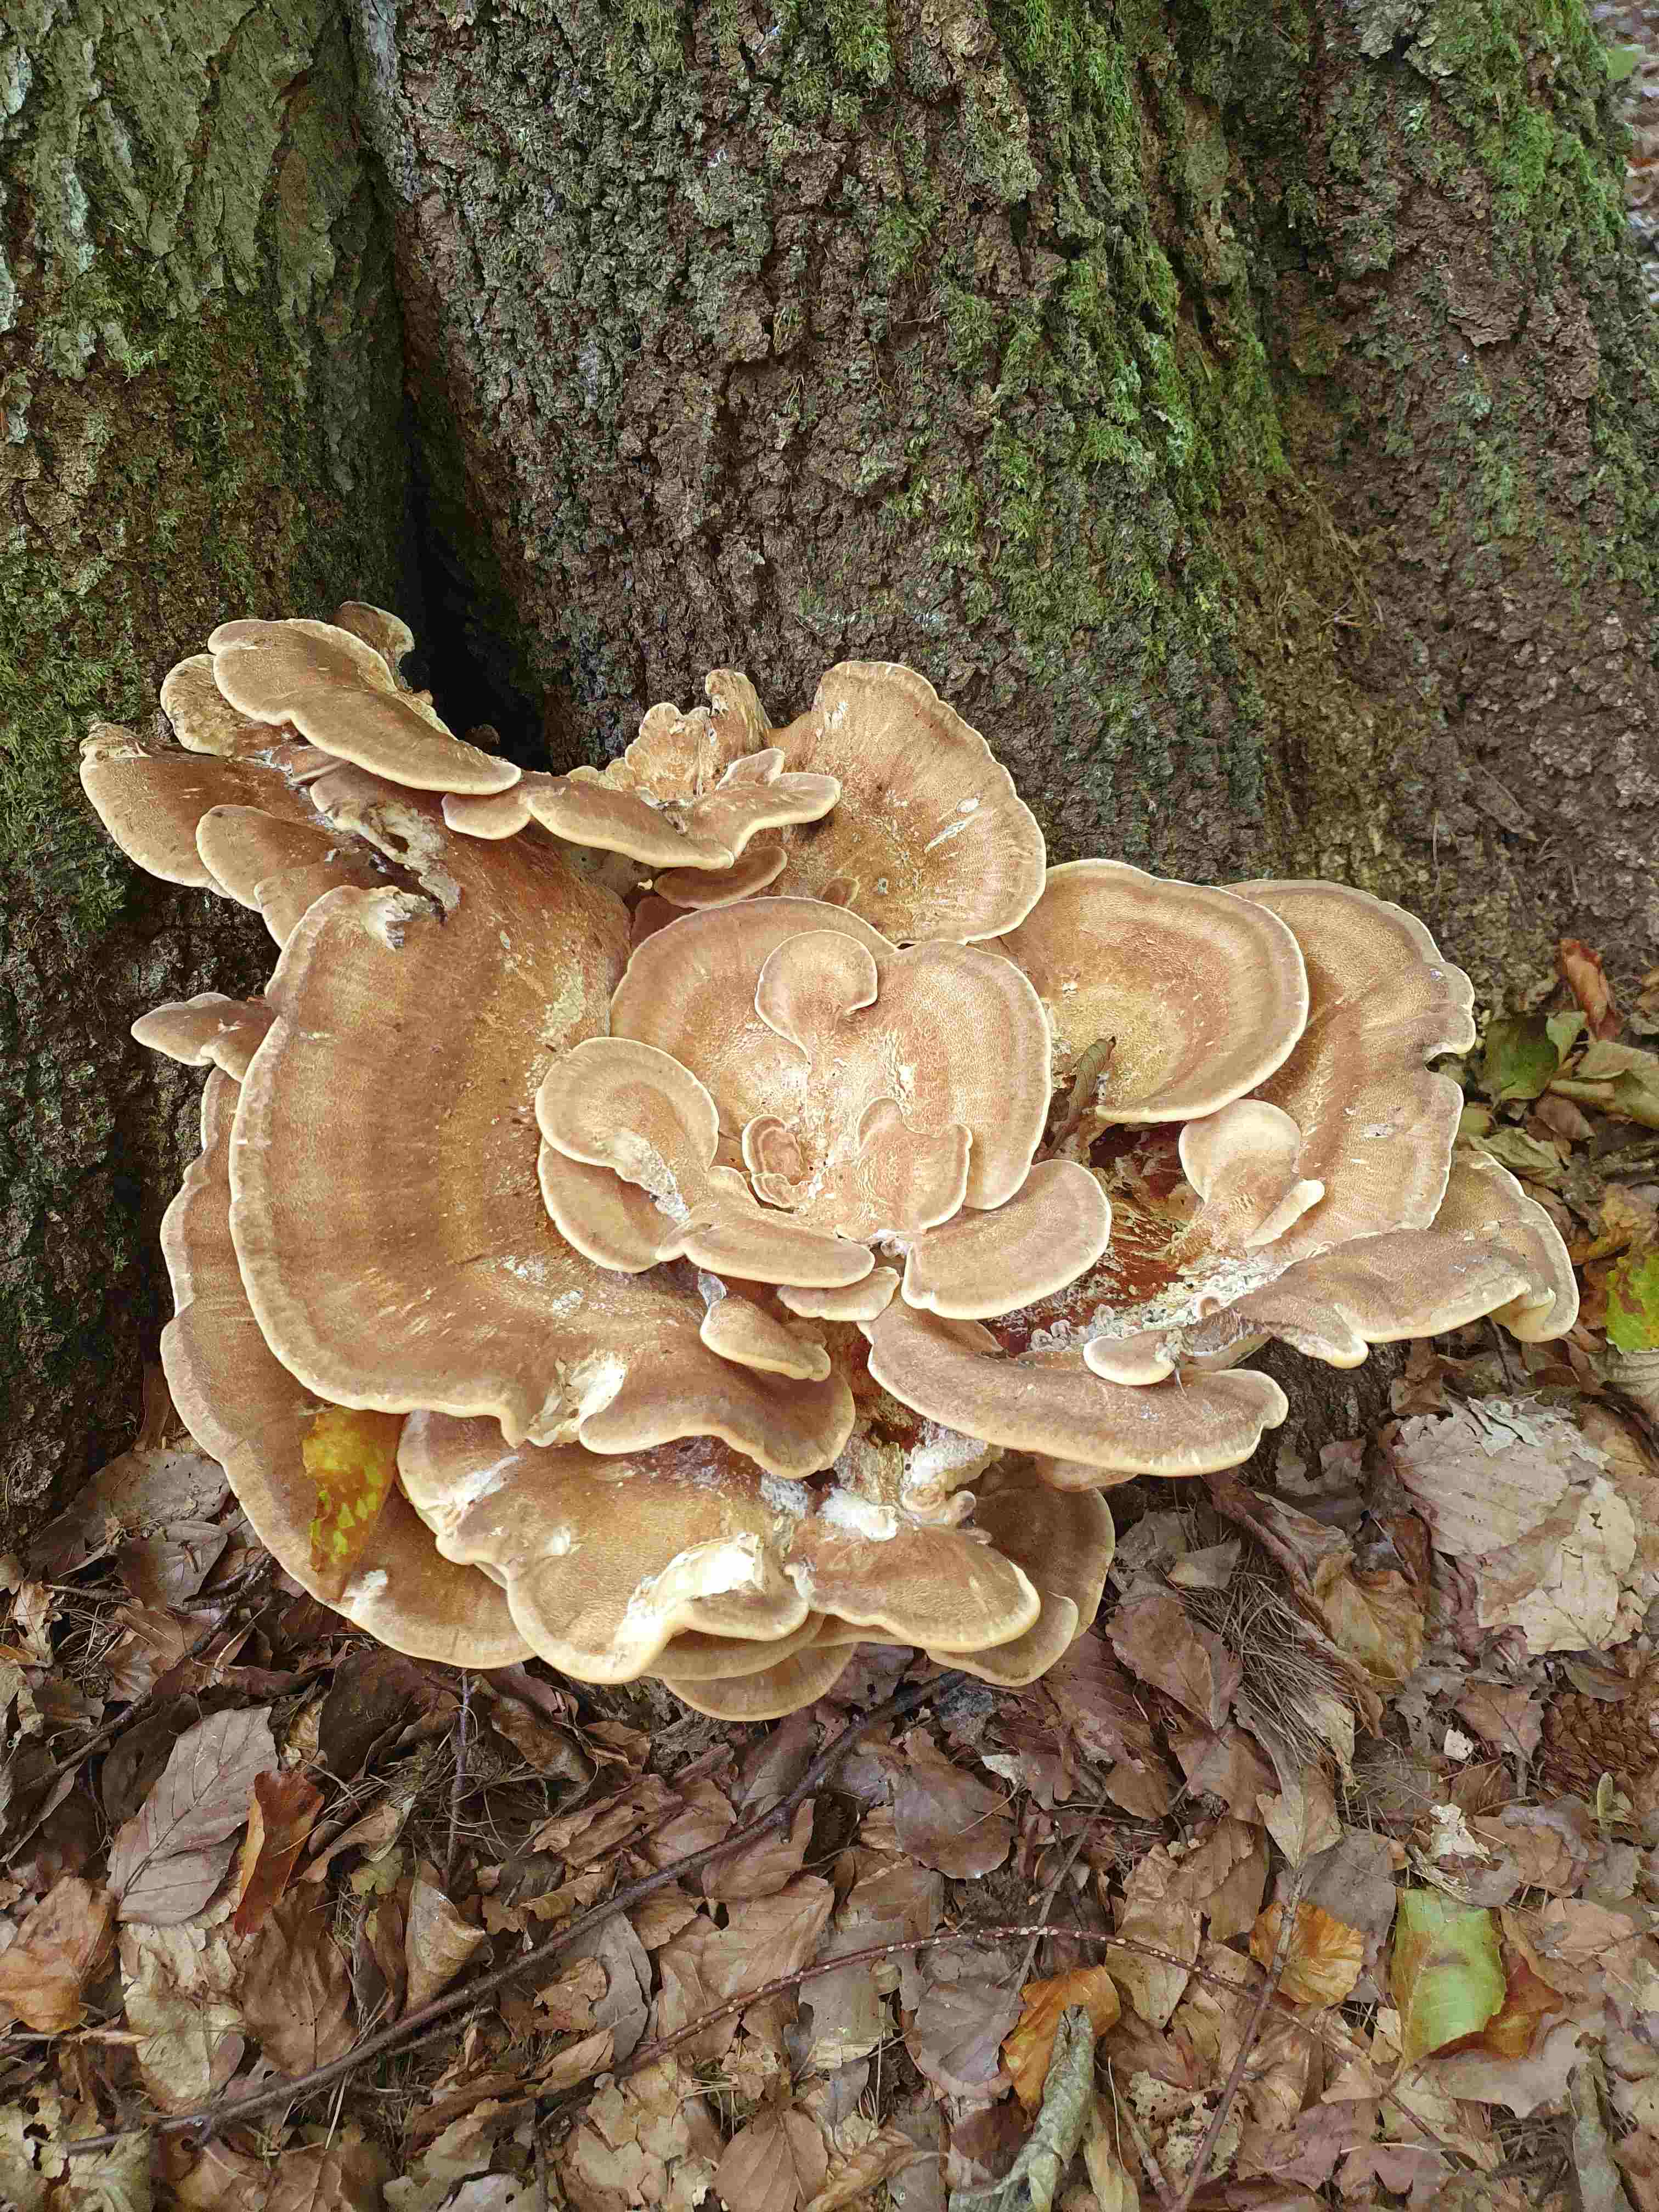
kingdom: Fungi
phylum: Basidiomycota
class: Agaricomycetes
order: Polyporales
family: Meripilaceae
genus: Meripilus
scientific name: Meripilus giganteus
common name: kæmpeporesvamp
